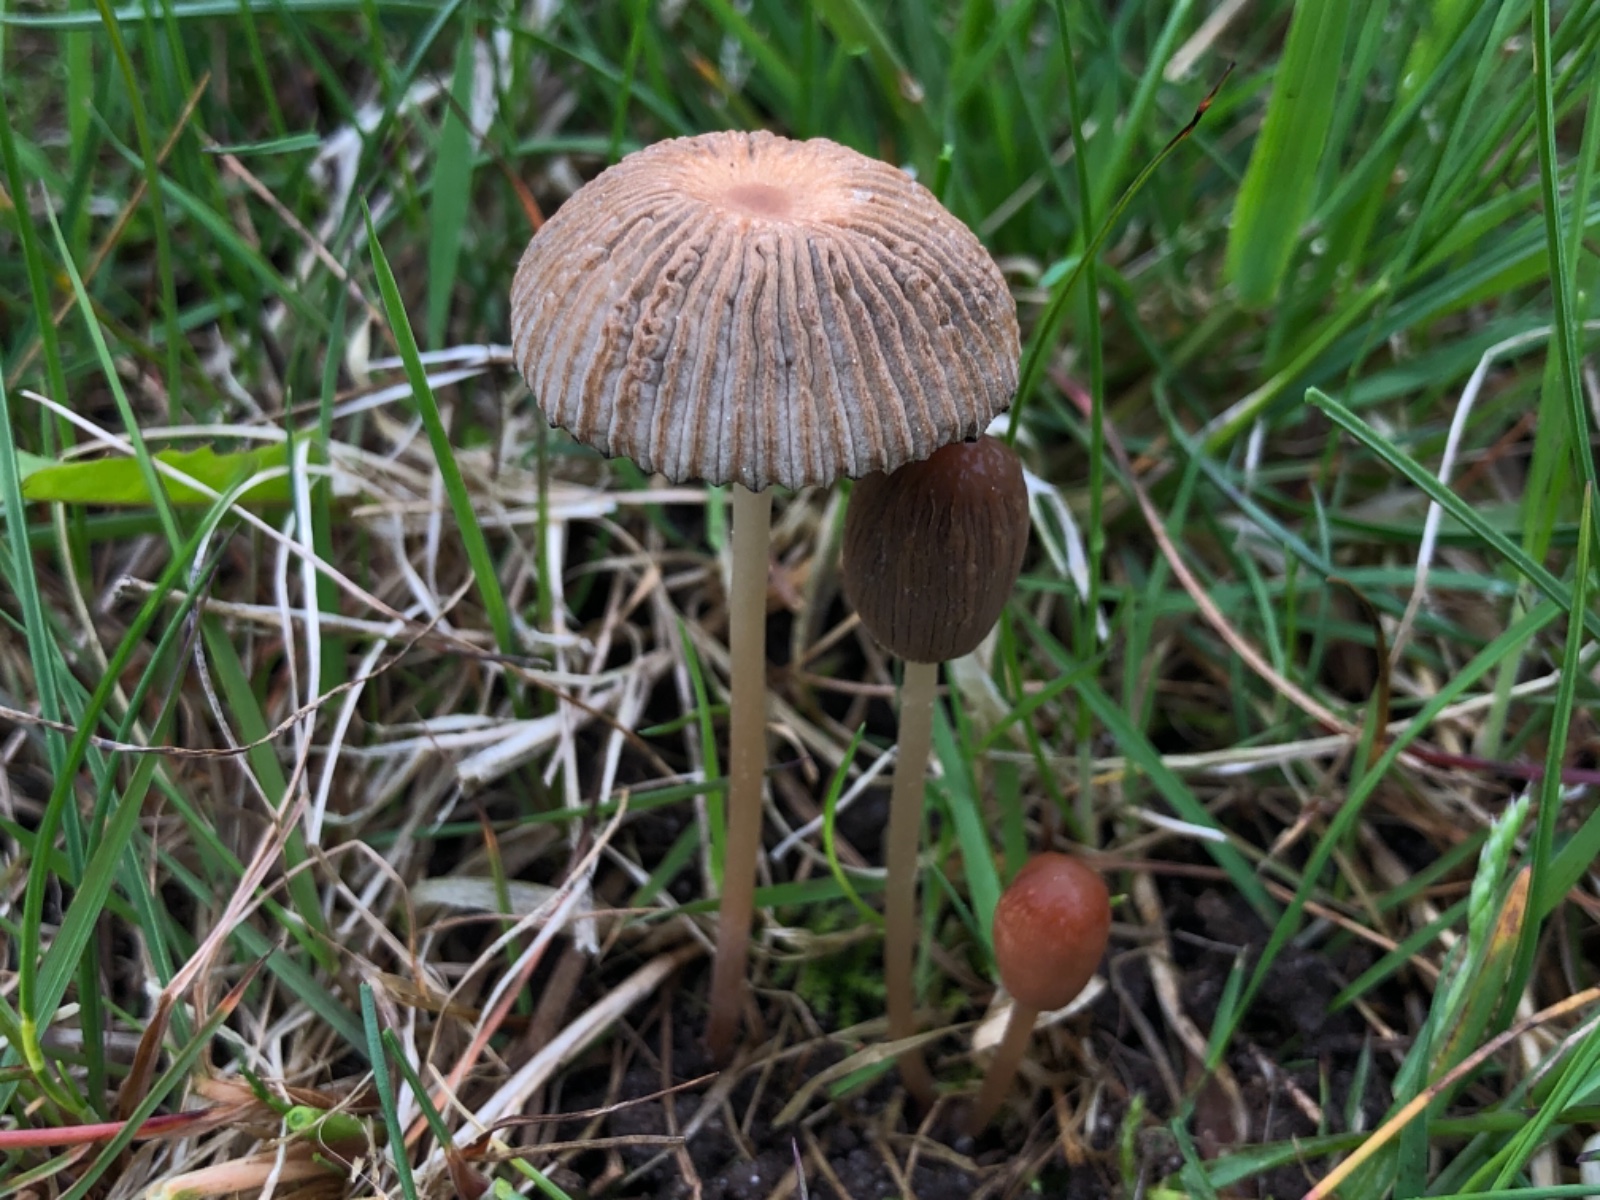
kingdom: Fungi
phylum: Basidiomycota
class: Agaricomycetes
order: Agaricales
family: Psathyrellaceae
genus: Parasola
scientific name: Parasola schroeteri
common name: bredsporet hjulhat
